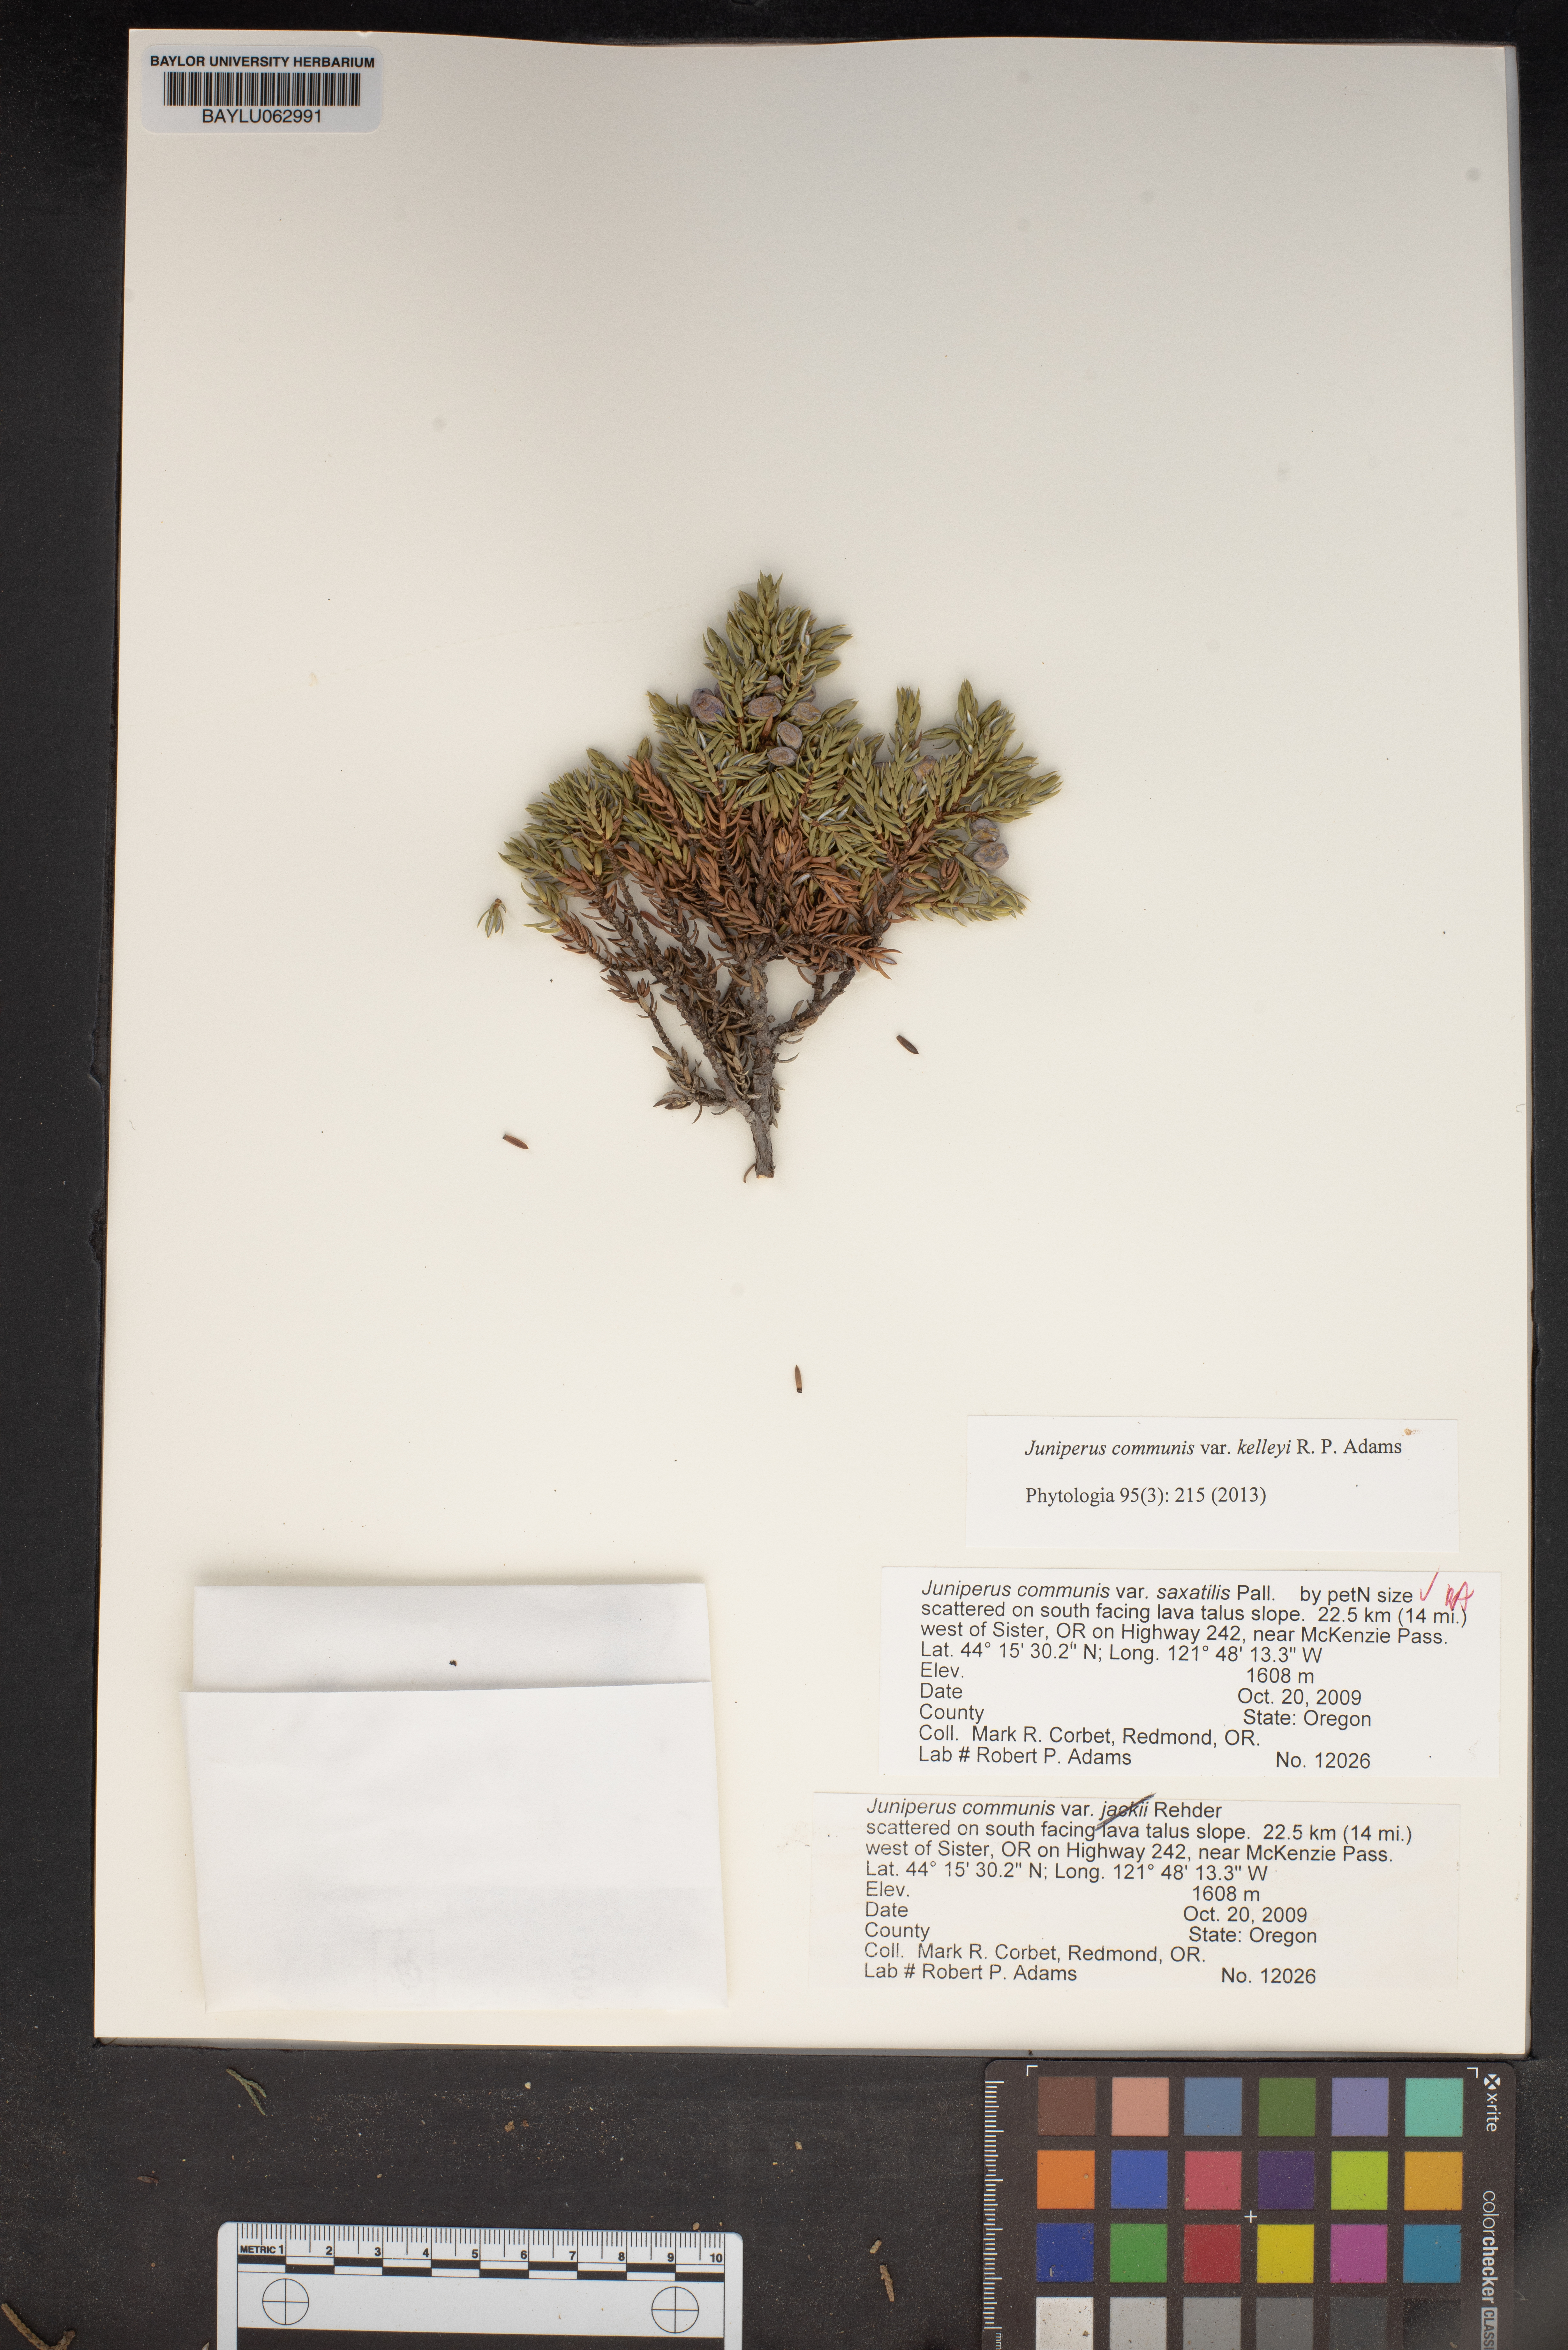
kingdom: Plantae
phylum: Tracheophyta
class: Pinopsida
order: Pinales
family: Cupressaceae
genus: Juniperus
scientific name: Juniperus communis
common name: Common juniper
